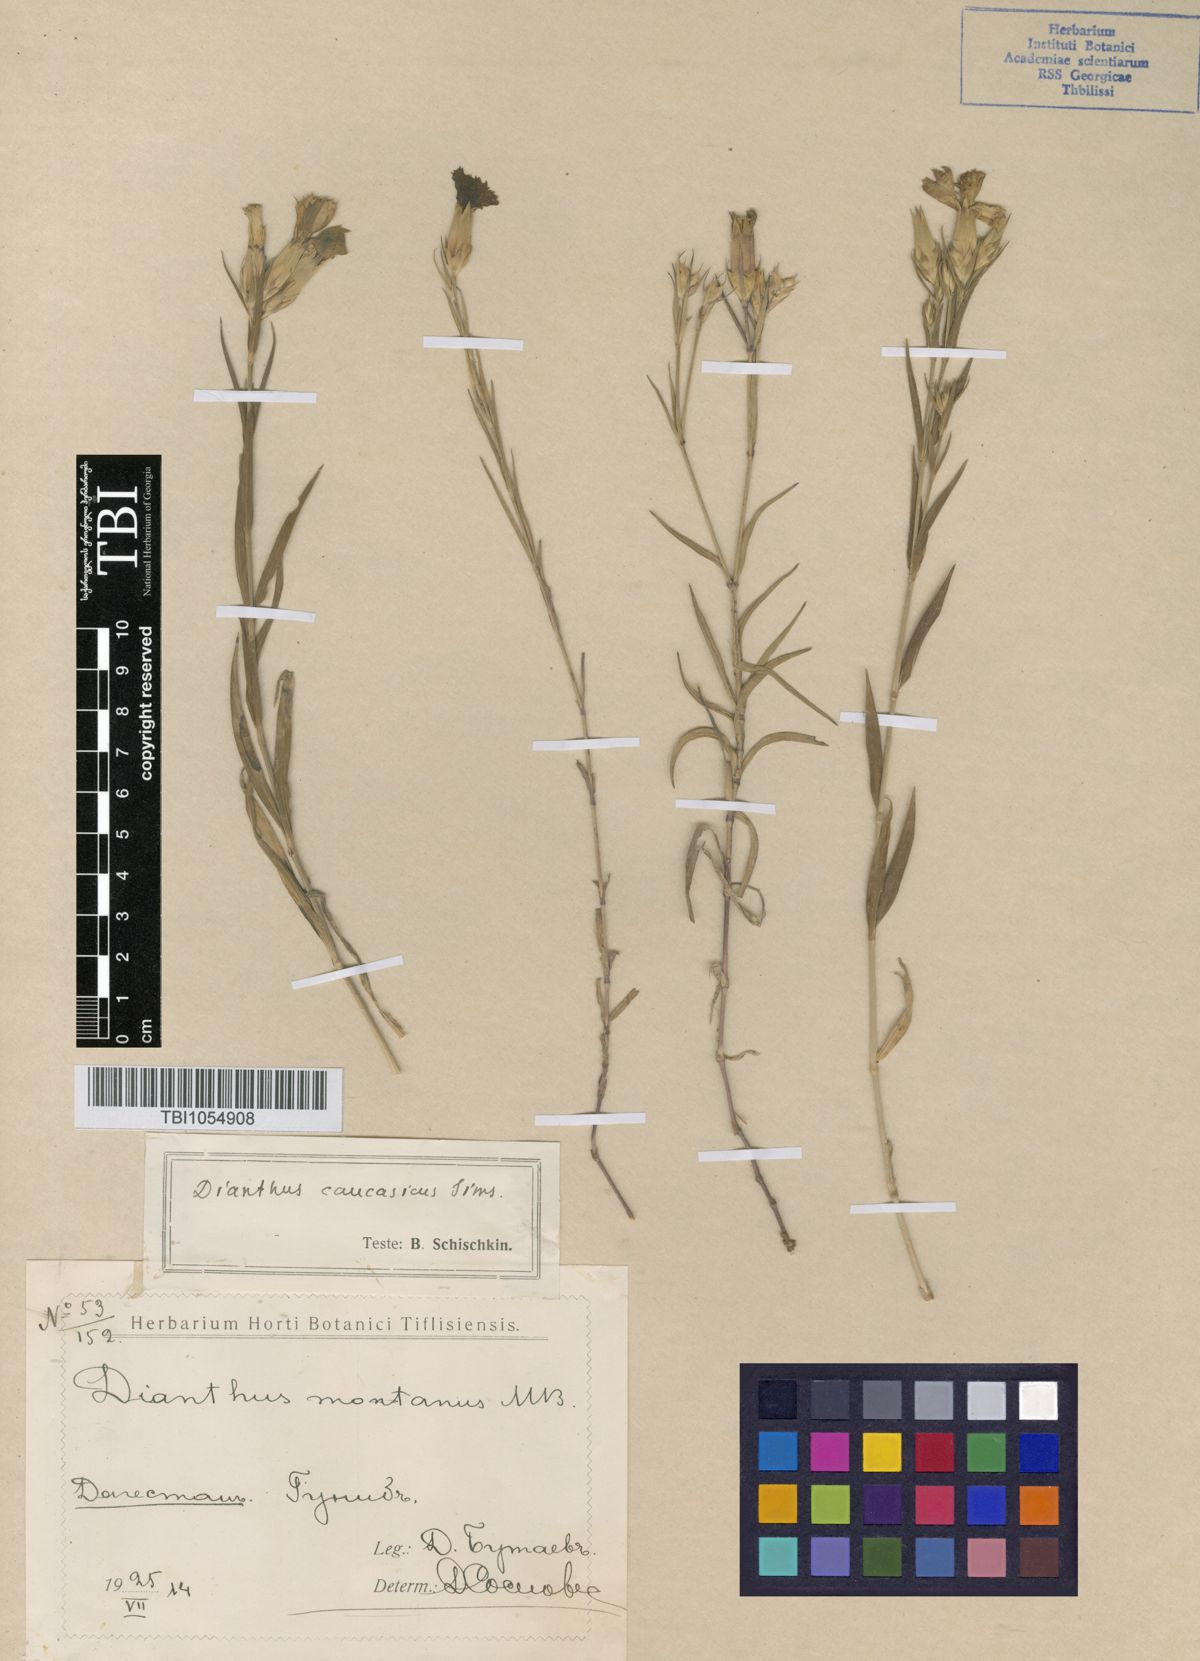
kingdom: Plantae
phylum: Tracheophyta
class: Magnoliopsida
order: Caryophyllales
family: Caryophyllaceae
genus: Dianthus
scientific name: Dianthus caucaseus
